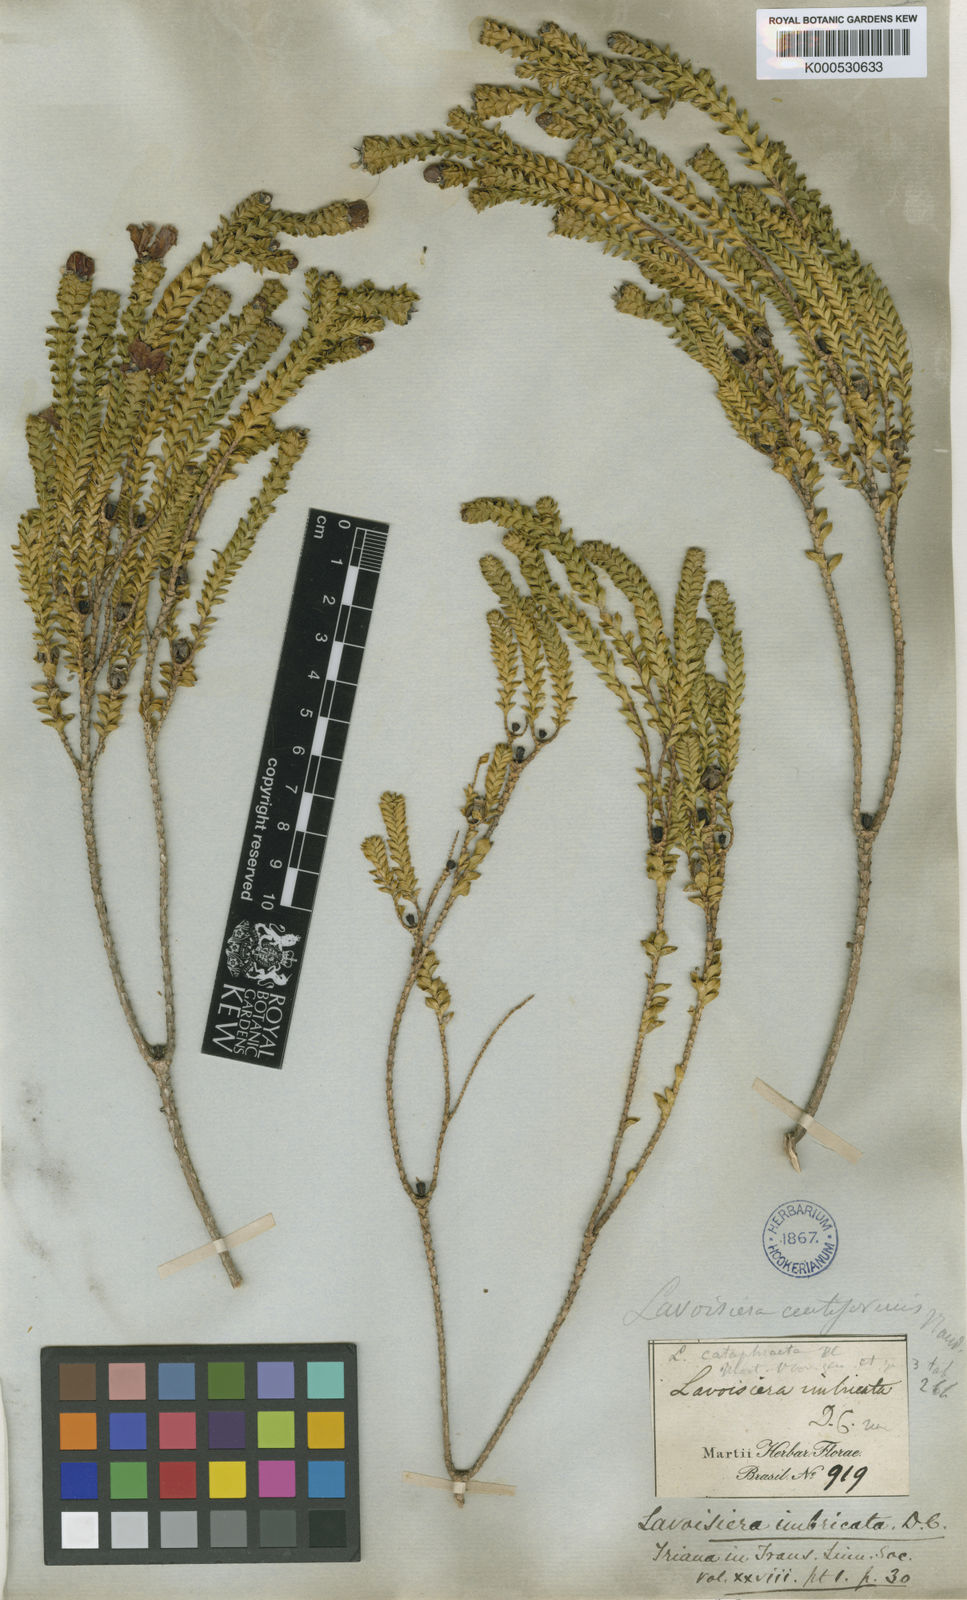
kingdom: Plantae
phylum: Tracheophyta
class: Magnoliopsida
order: Myrtales
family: Melastomataceae
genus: Microlicia
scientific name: Microlicia cataphracta
